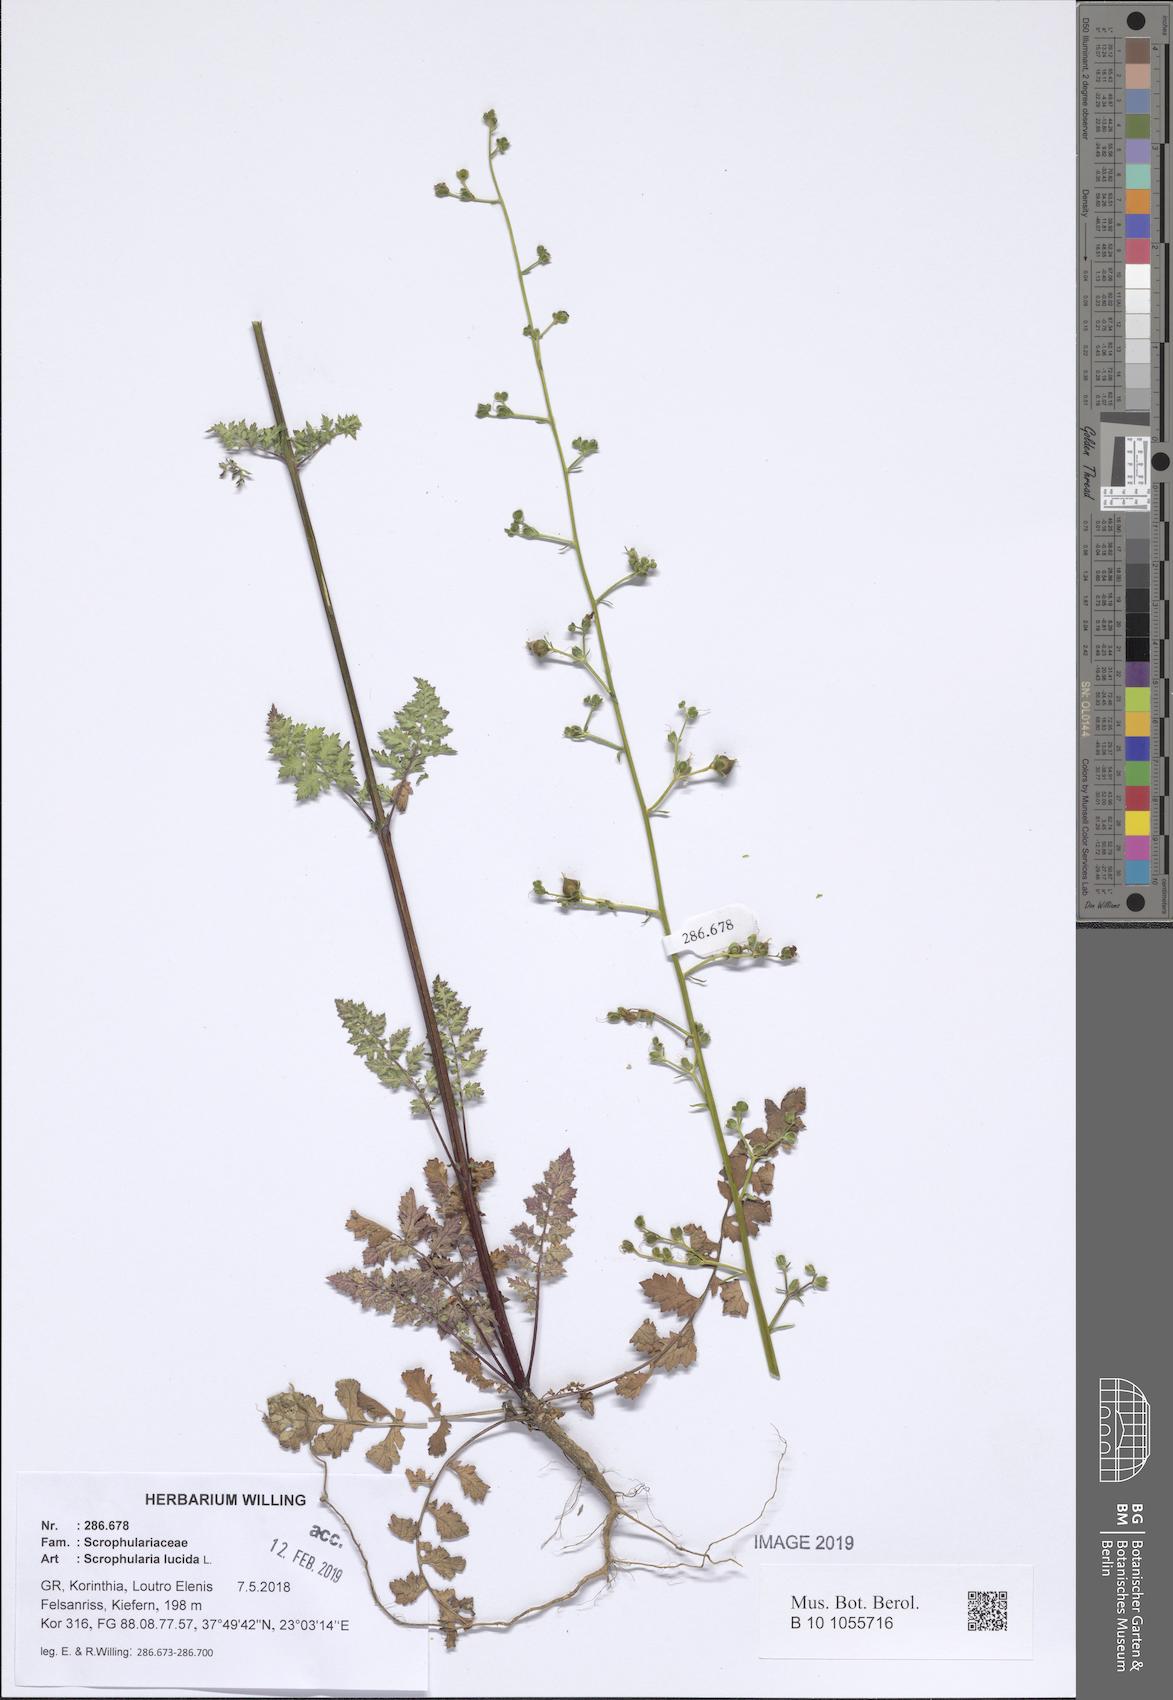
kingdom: Plantae
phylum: Tracheophyta
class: Magnoliopsida
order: Lamiales
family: Scrophulariaceae
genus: Scrophularia
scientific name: Scrophularia lucida
